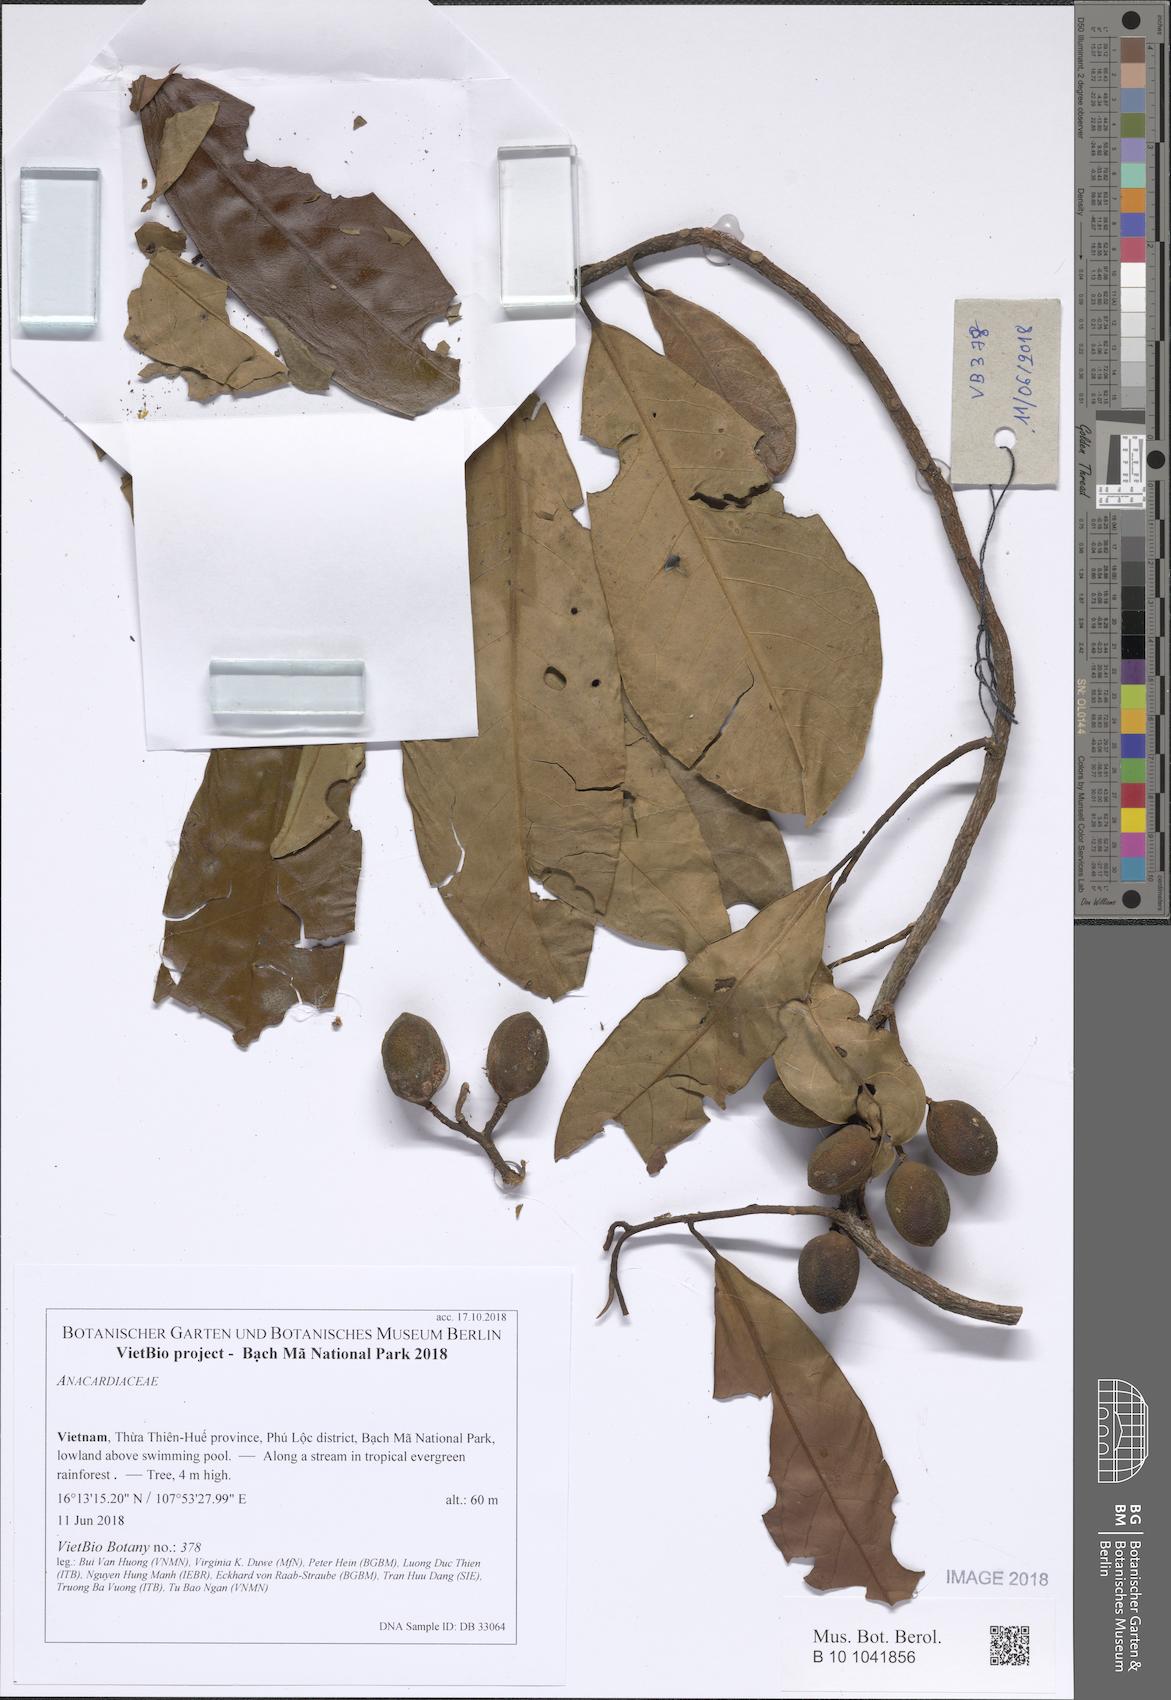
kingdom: Plantae
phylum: Tracheophyta
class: Magnoliopsida
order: Sapindales
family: Anacardiaceae
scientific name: Anacardiaceae
